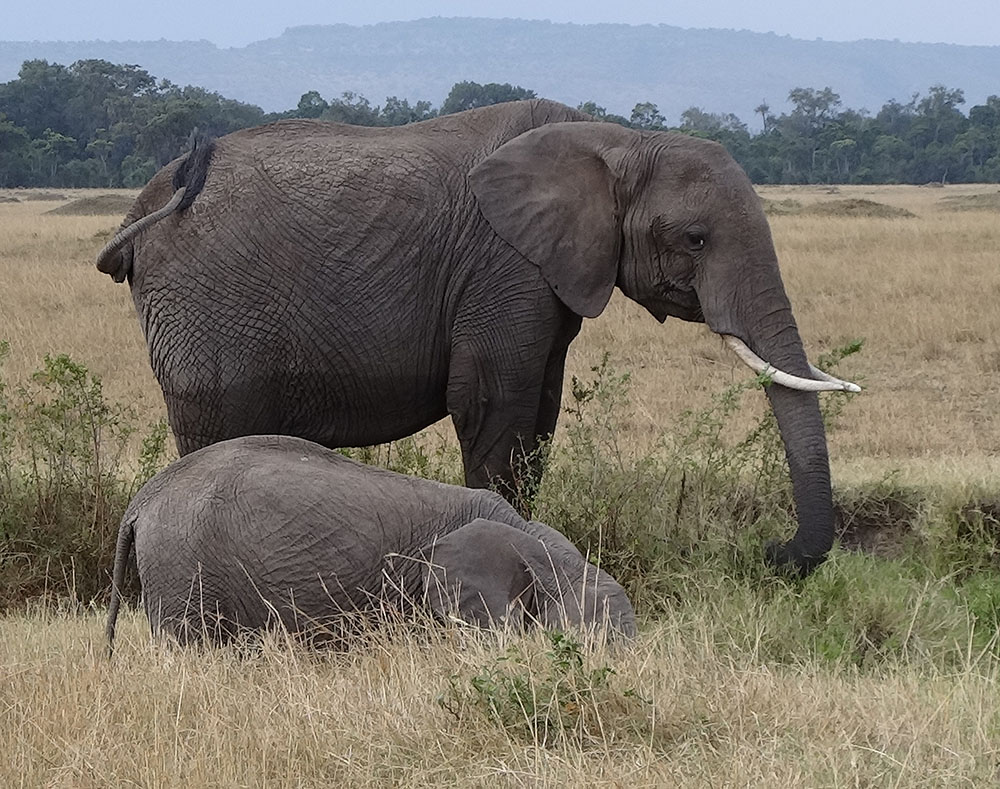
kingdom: Animalia
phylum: Chordata
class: Mammalia
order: Proboscidea
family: Elephantidae
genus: Loxodonta
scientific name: Loxodonta africana
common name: African elephant
